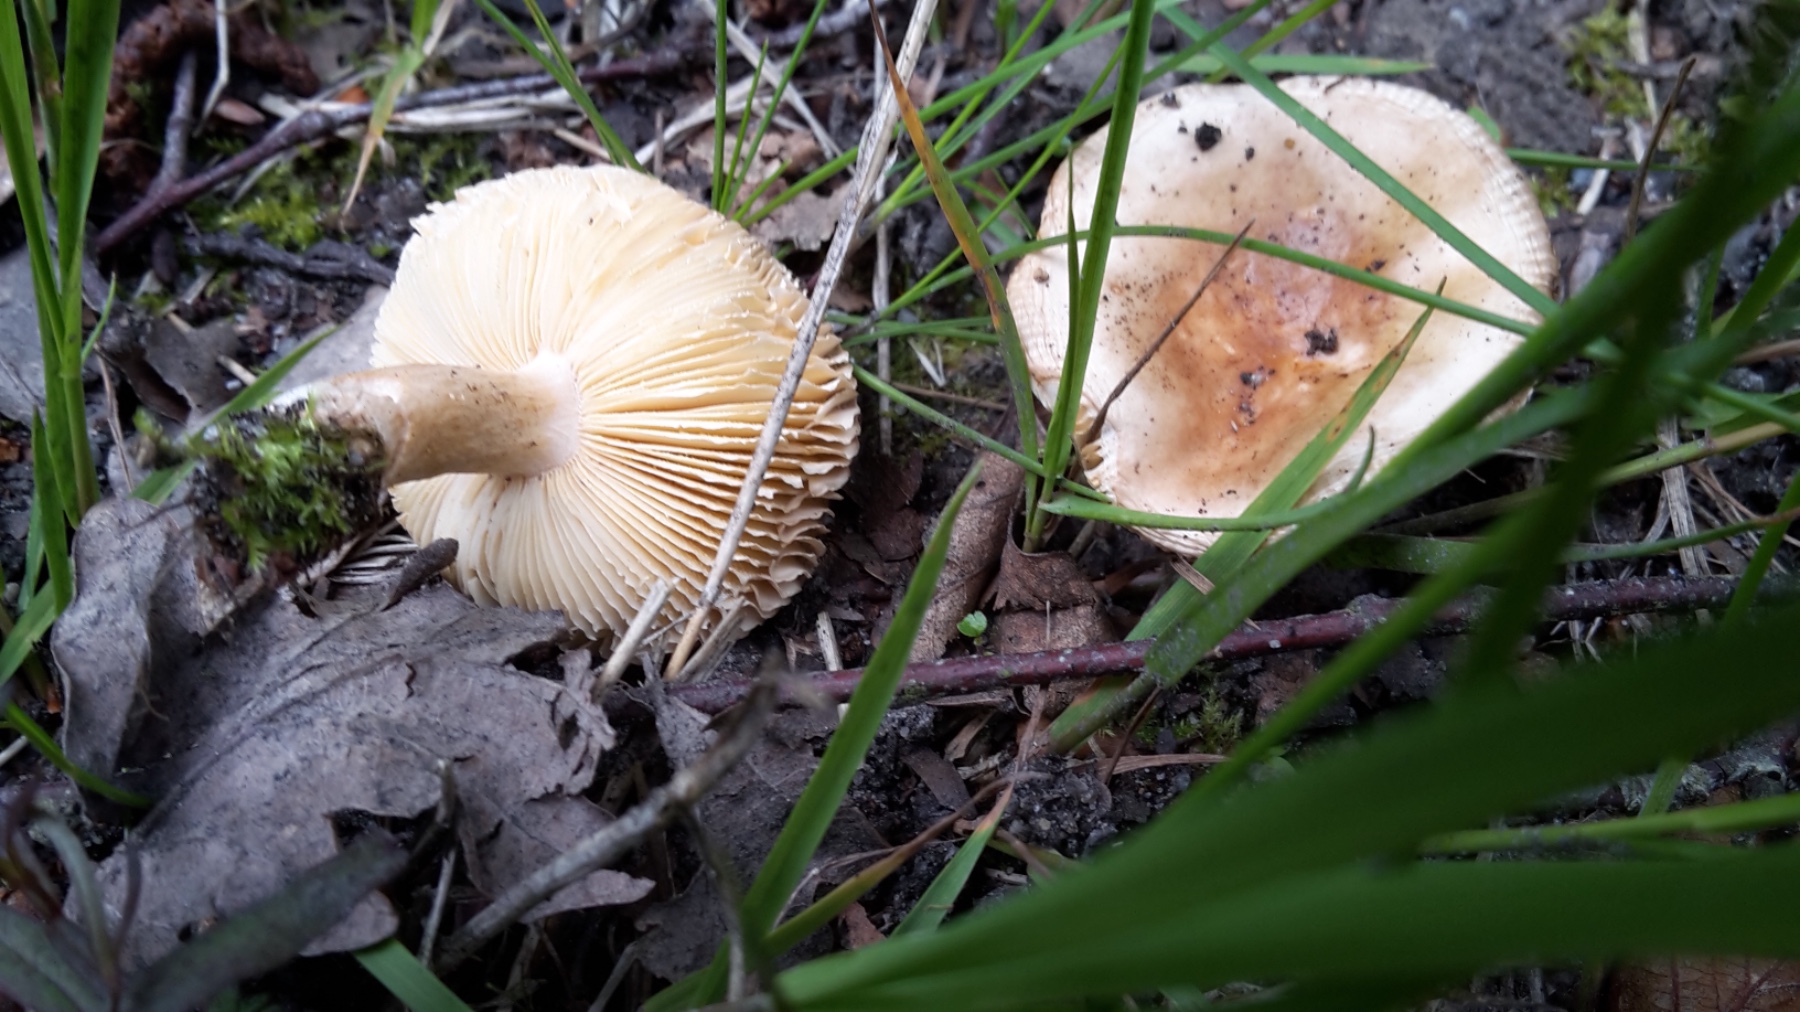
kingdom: Fungi
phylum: Basidiomycota
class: Agaricomycetes
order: Russulales
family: Russulaceae
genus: Russula
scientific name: Russula
